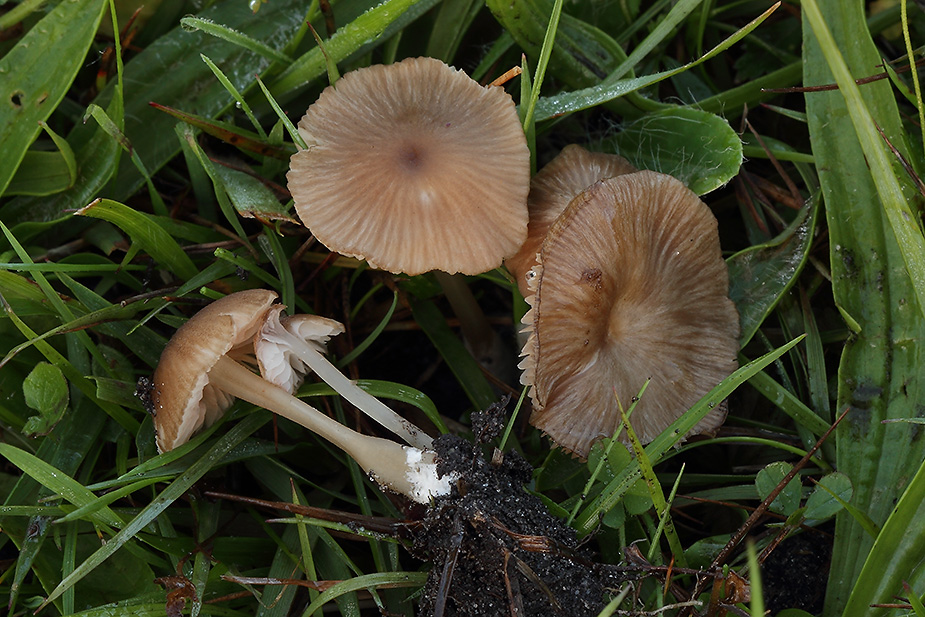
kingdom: Fungi
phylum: Basidiomycota
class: Agaricomycetes
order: Agaricales
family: Entolomataceae
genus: Entoloma
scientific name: Entoloma olivaceotinctum
